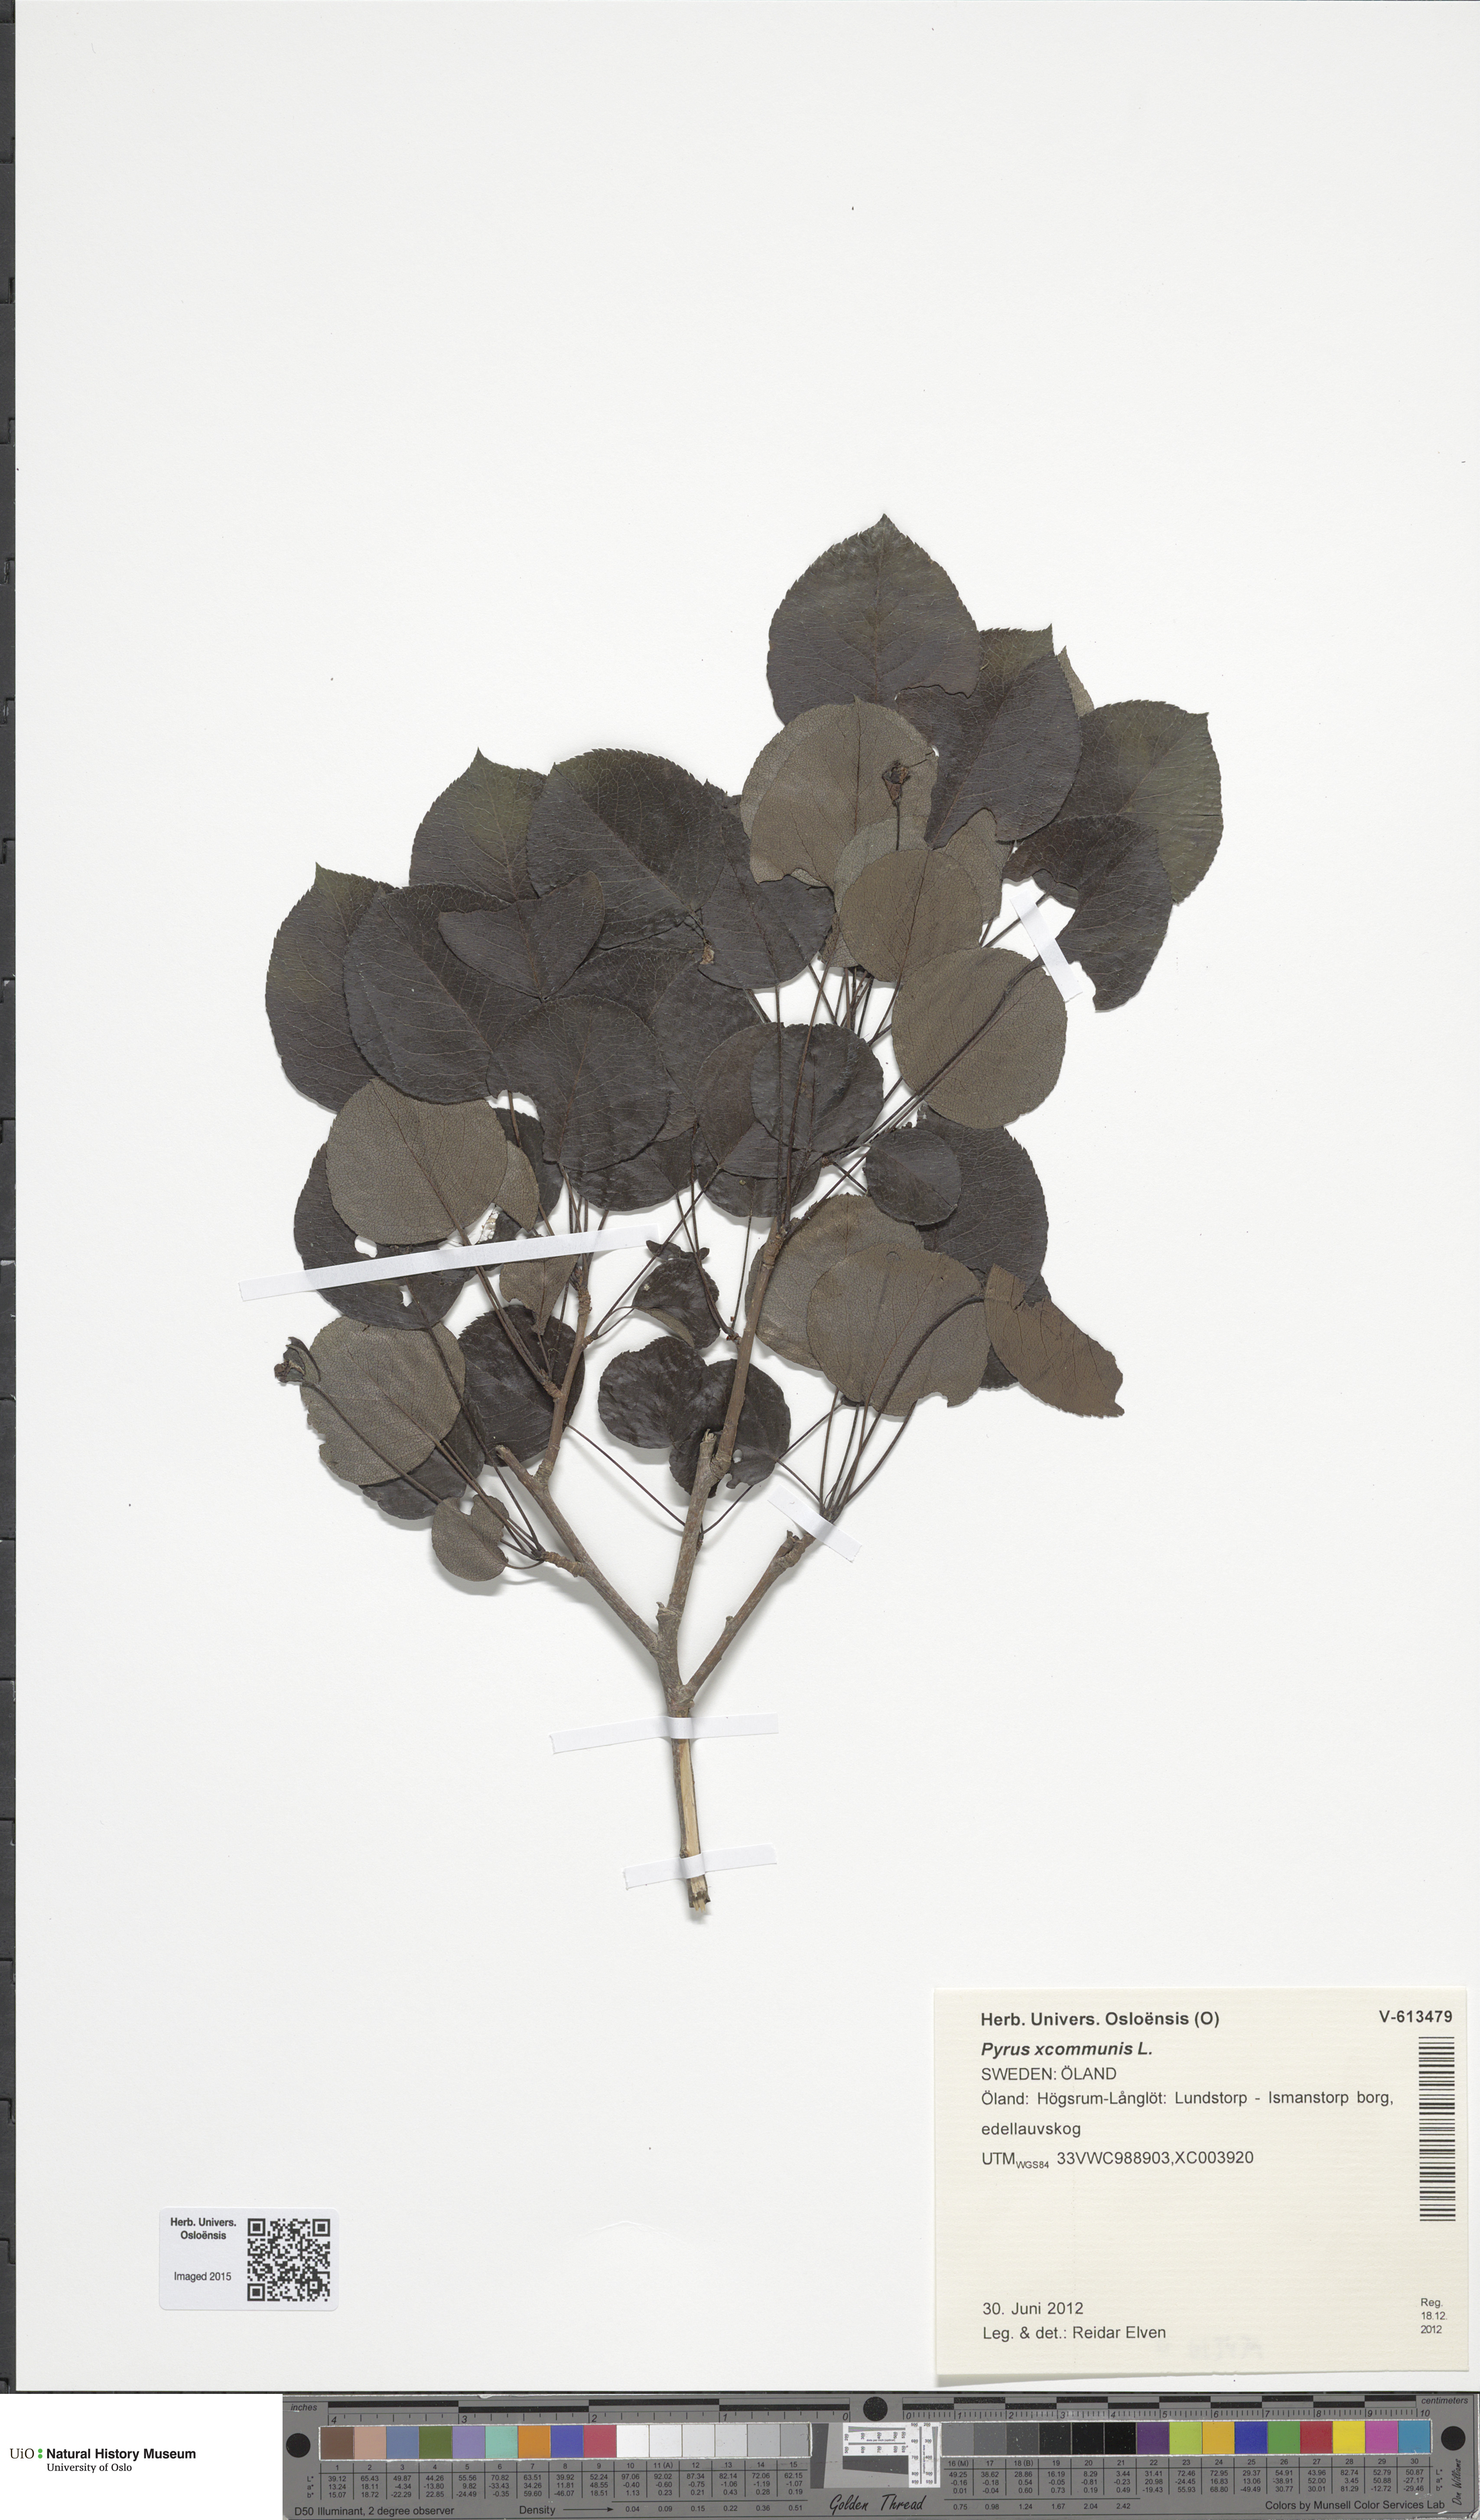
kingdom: Plantae
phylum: Tracheophyta
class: Magnoliopsida
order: Rosales
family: Rosaceae
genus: Pyrus
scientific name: Pyrus communis
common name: Pear
